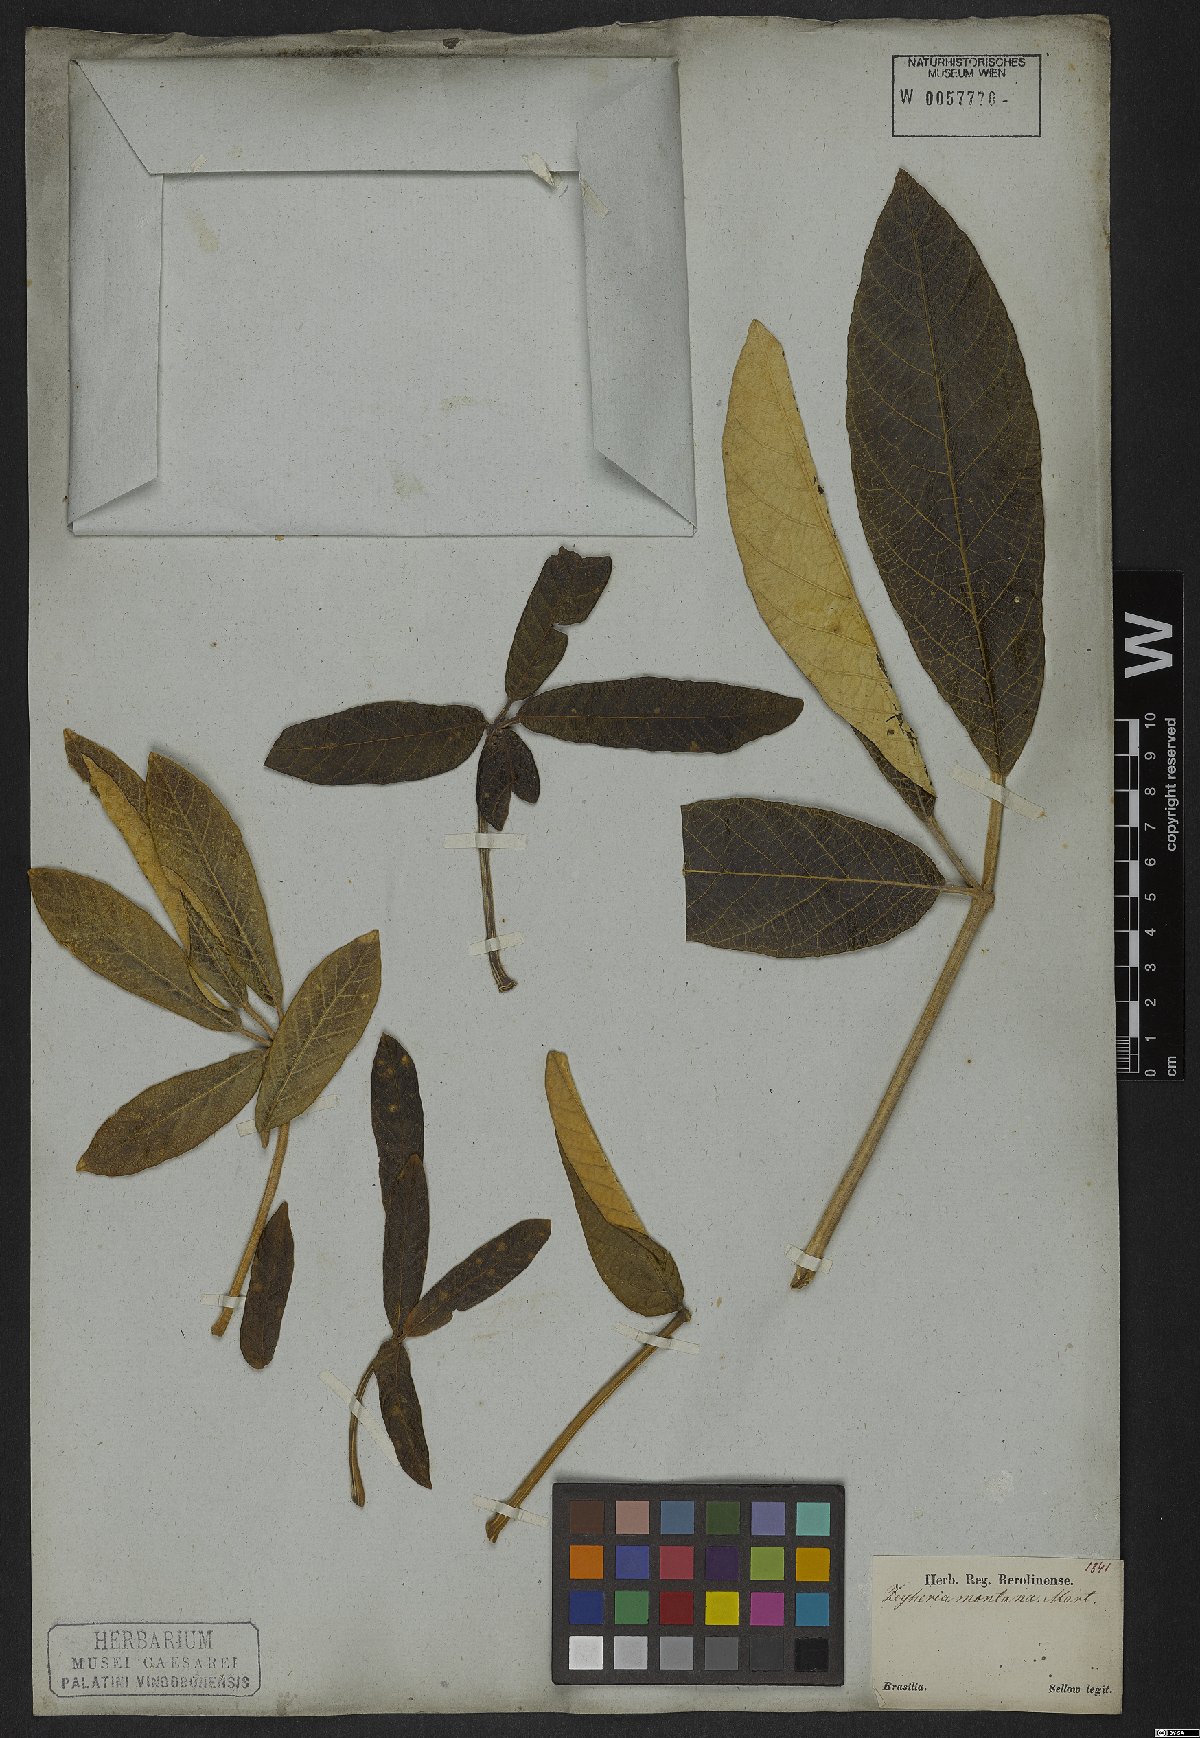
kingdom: Plantae
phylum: Tracheophyta
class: Magnoliopsida
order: Lamiales
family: Bignoniaceae
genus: Zeyheria
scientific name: Zeyheria montana
